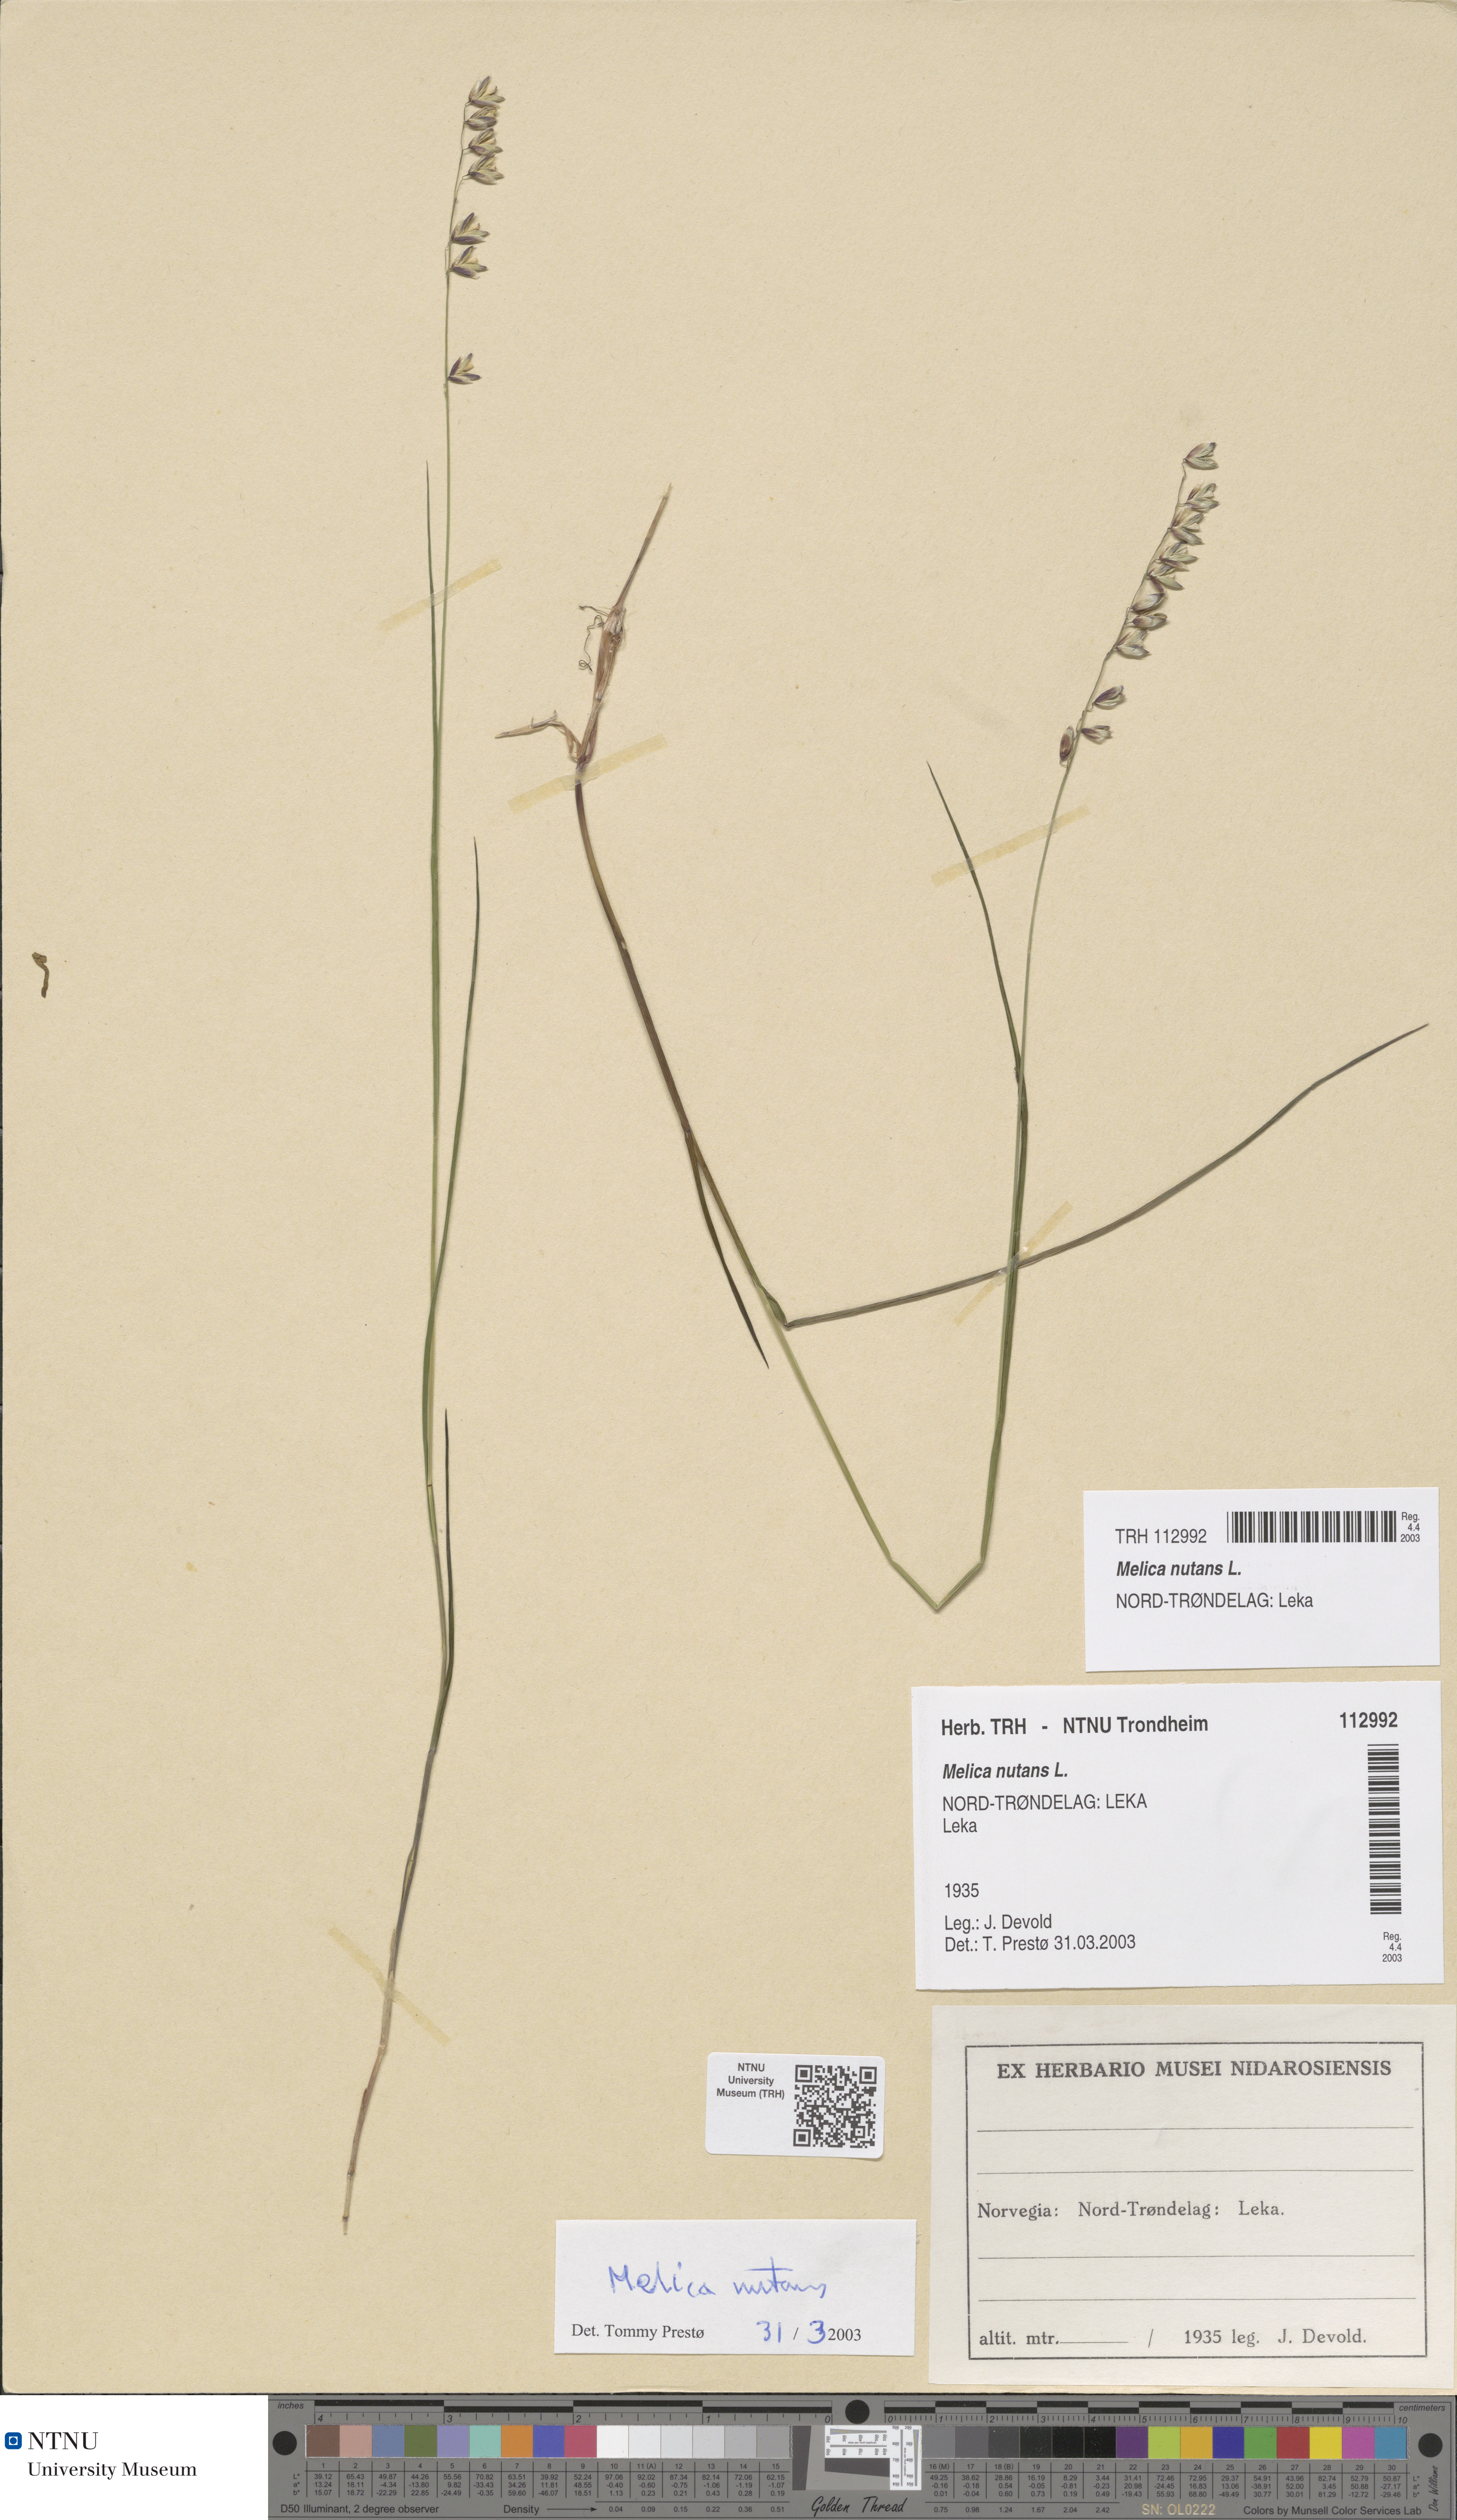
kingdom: Plantae
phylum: Tracheophyta
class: Liliopsida
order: Poales
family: Poaceae
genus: Melica
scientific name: Melica nutans
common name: Mountain melick
